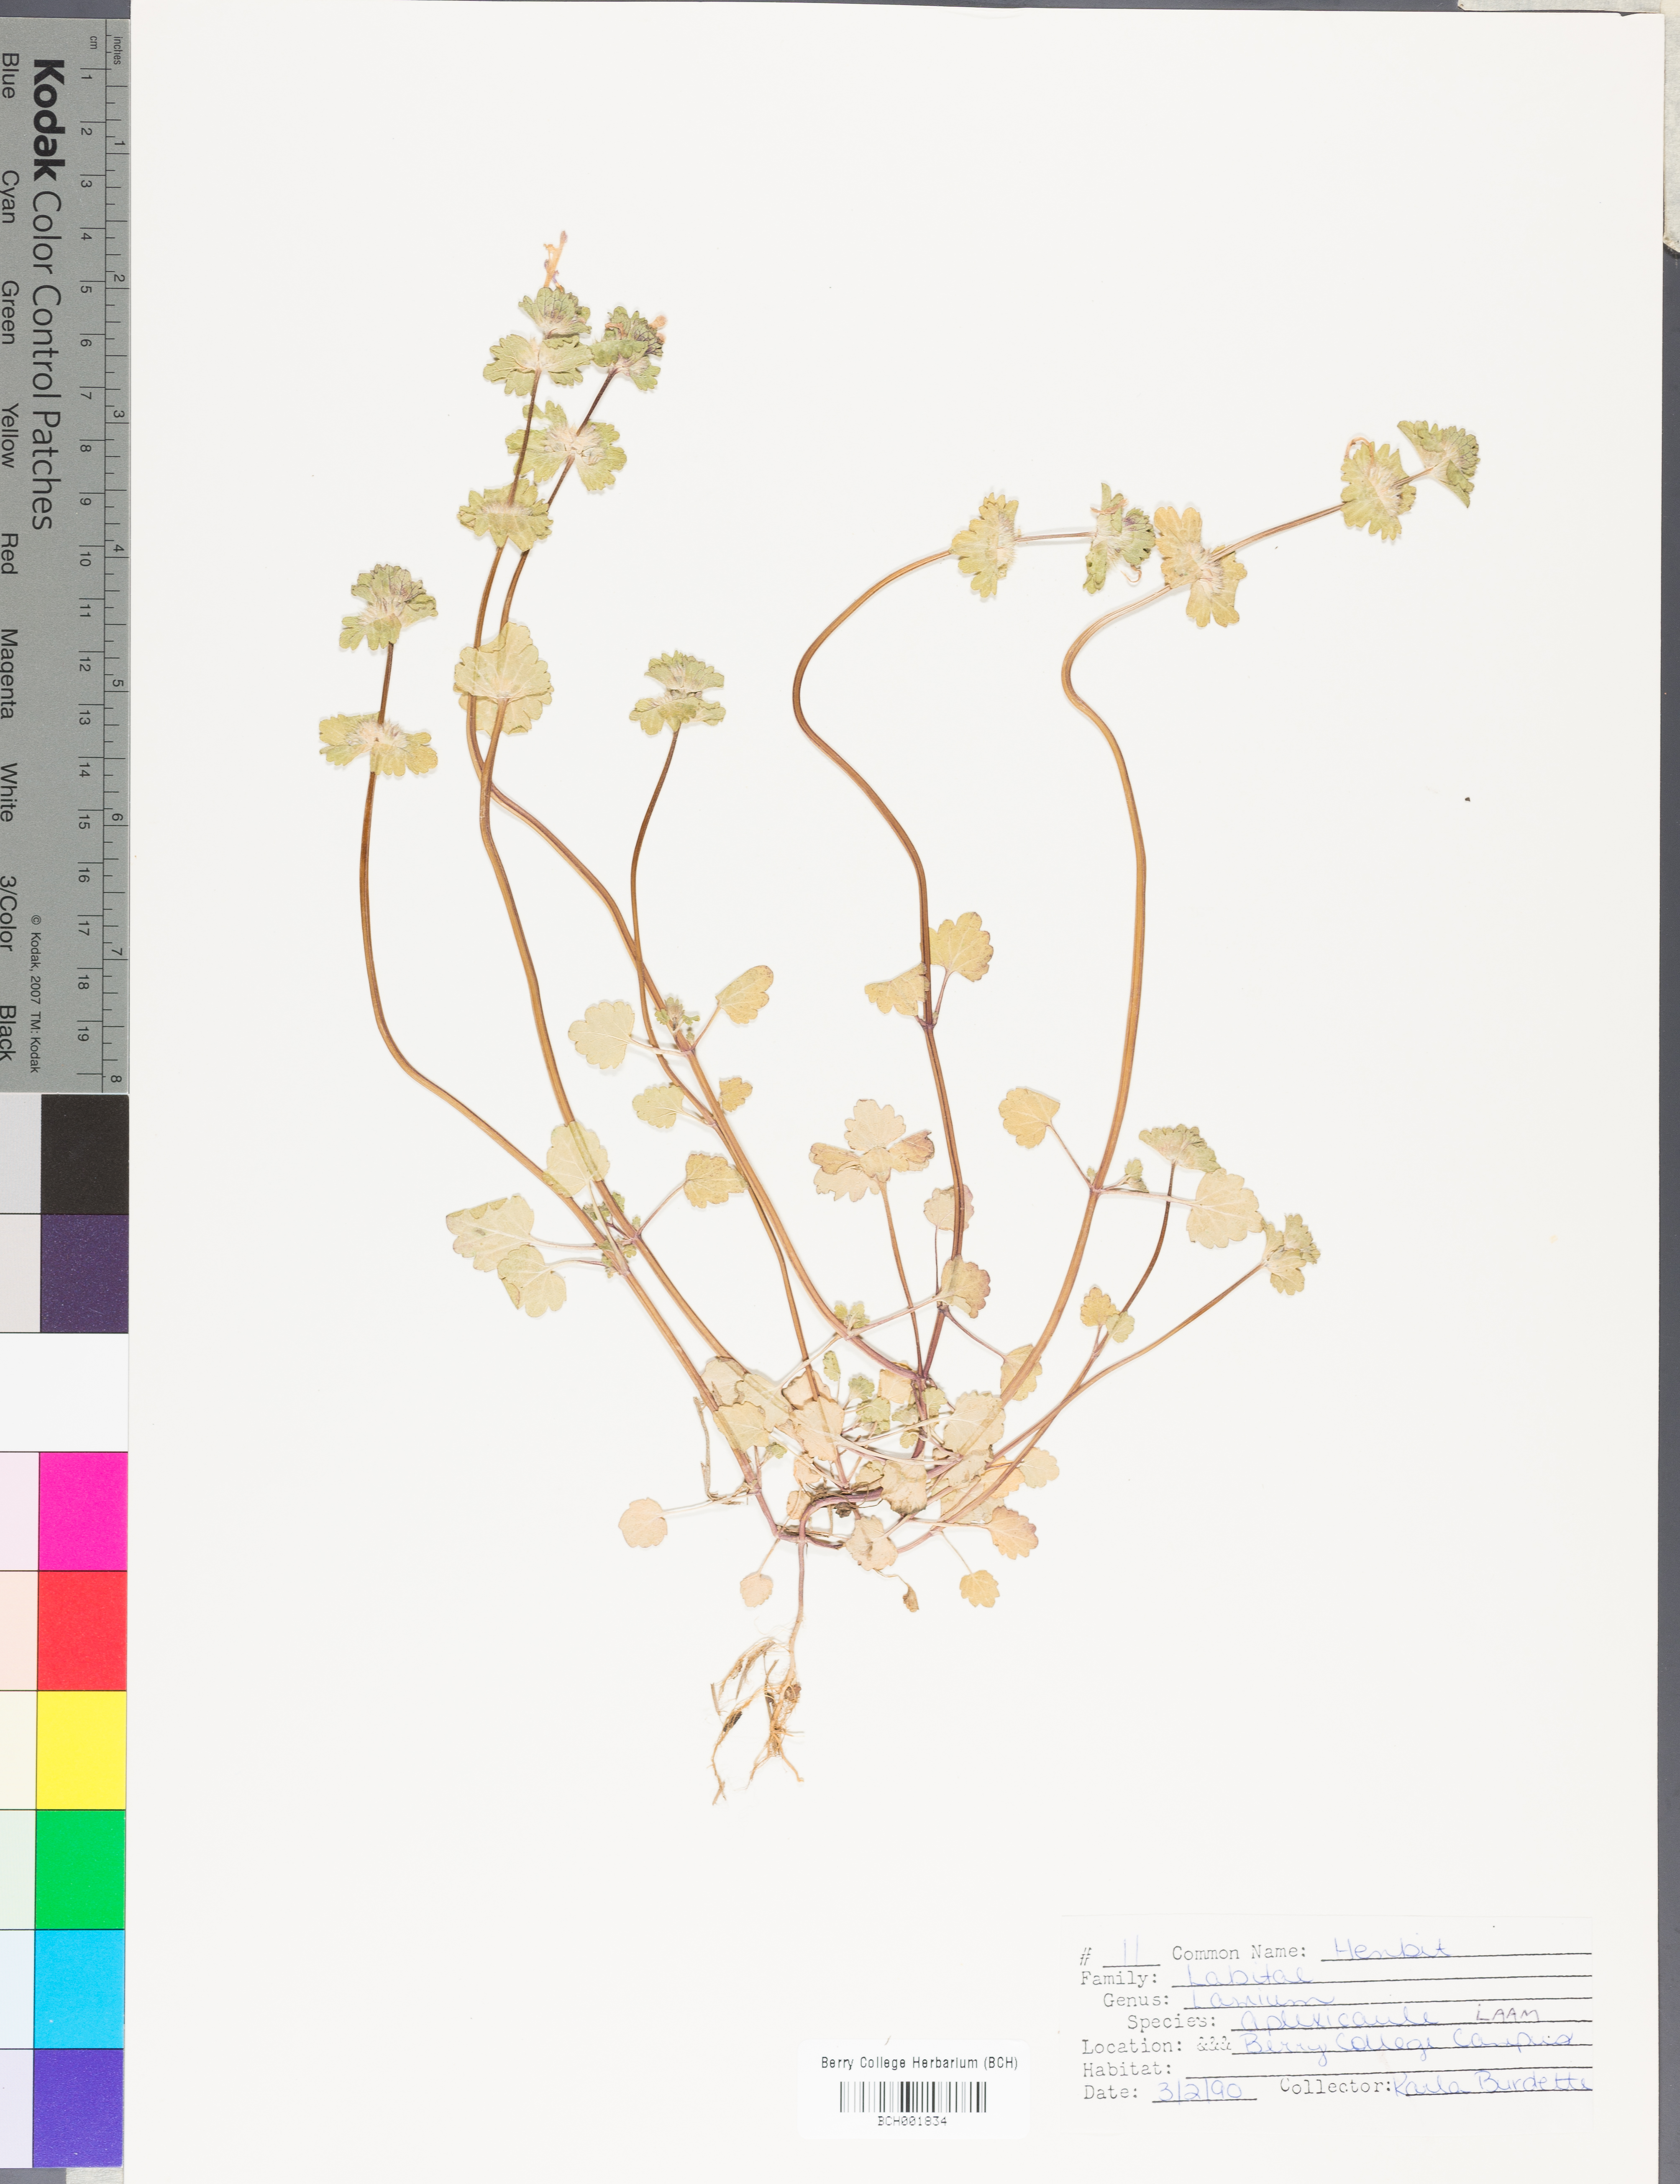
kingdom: Plantae
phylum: Tracheophyta
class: Magnoliopsida
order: Lamiales
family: Lamiaceae
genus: Lamium
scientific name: Lamium amplexicaule
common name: Henbit dead-nettle
